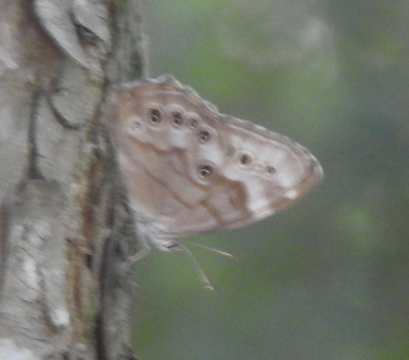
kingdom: Animalia
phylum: Arthropoda
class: Insecta
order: Lepidoptera
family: Nymphalidae
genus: Lethe
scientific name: Lethe anthedon
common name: Northern Pearly-Eye
